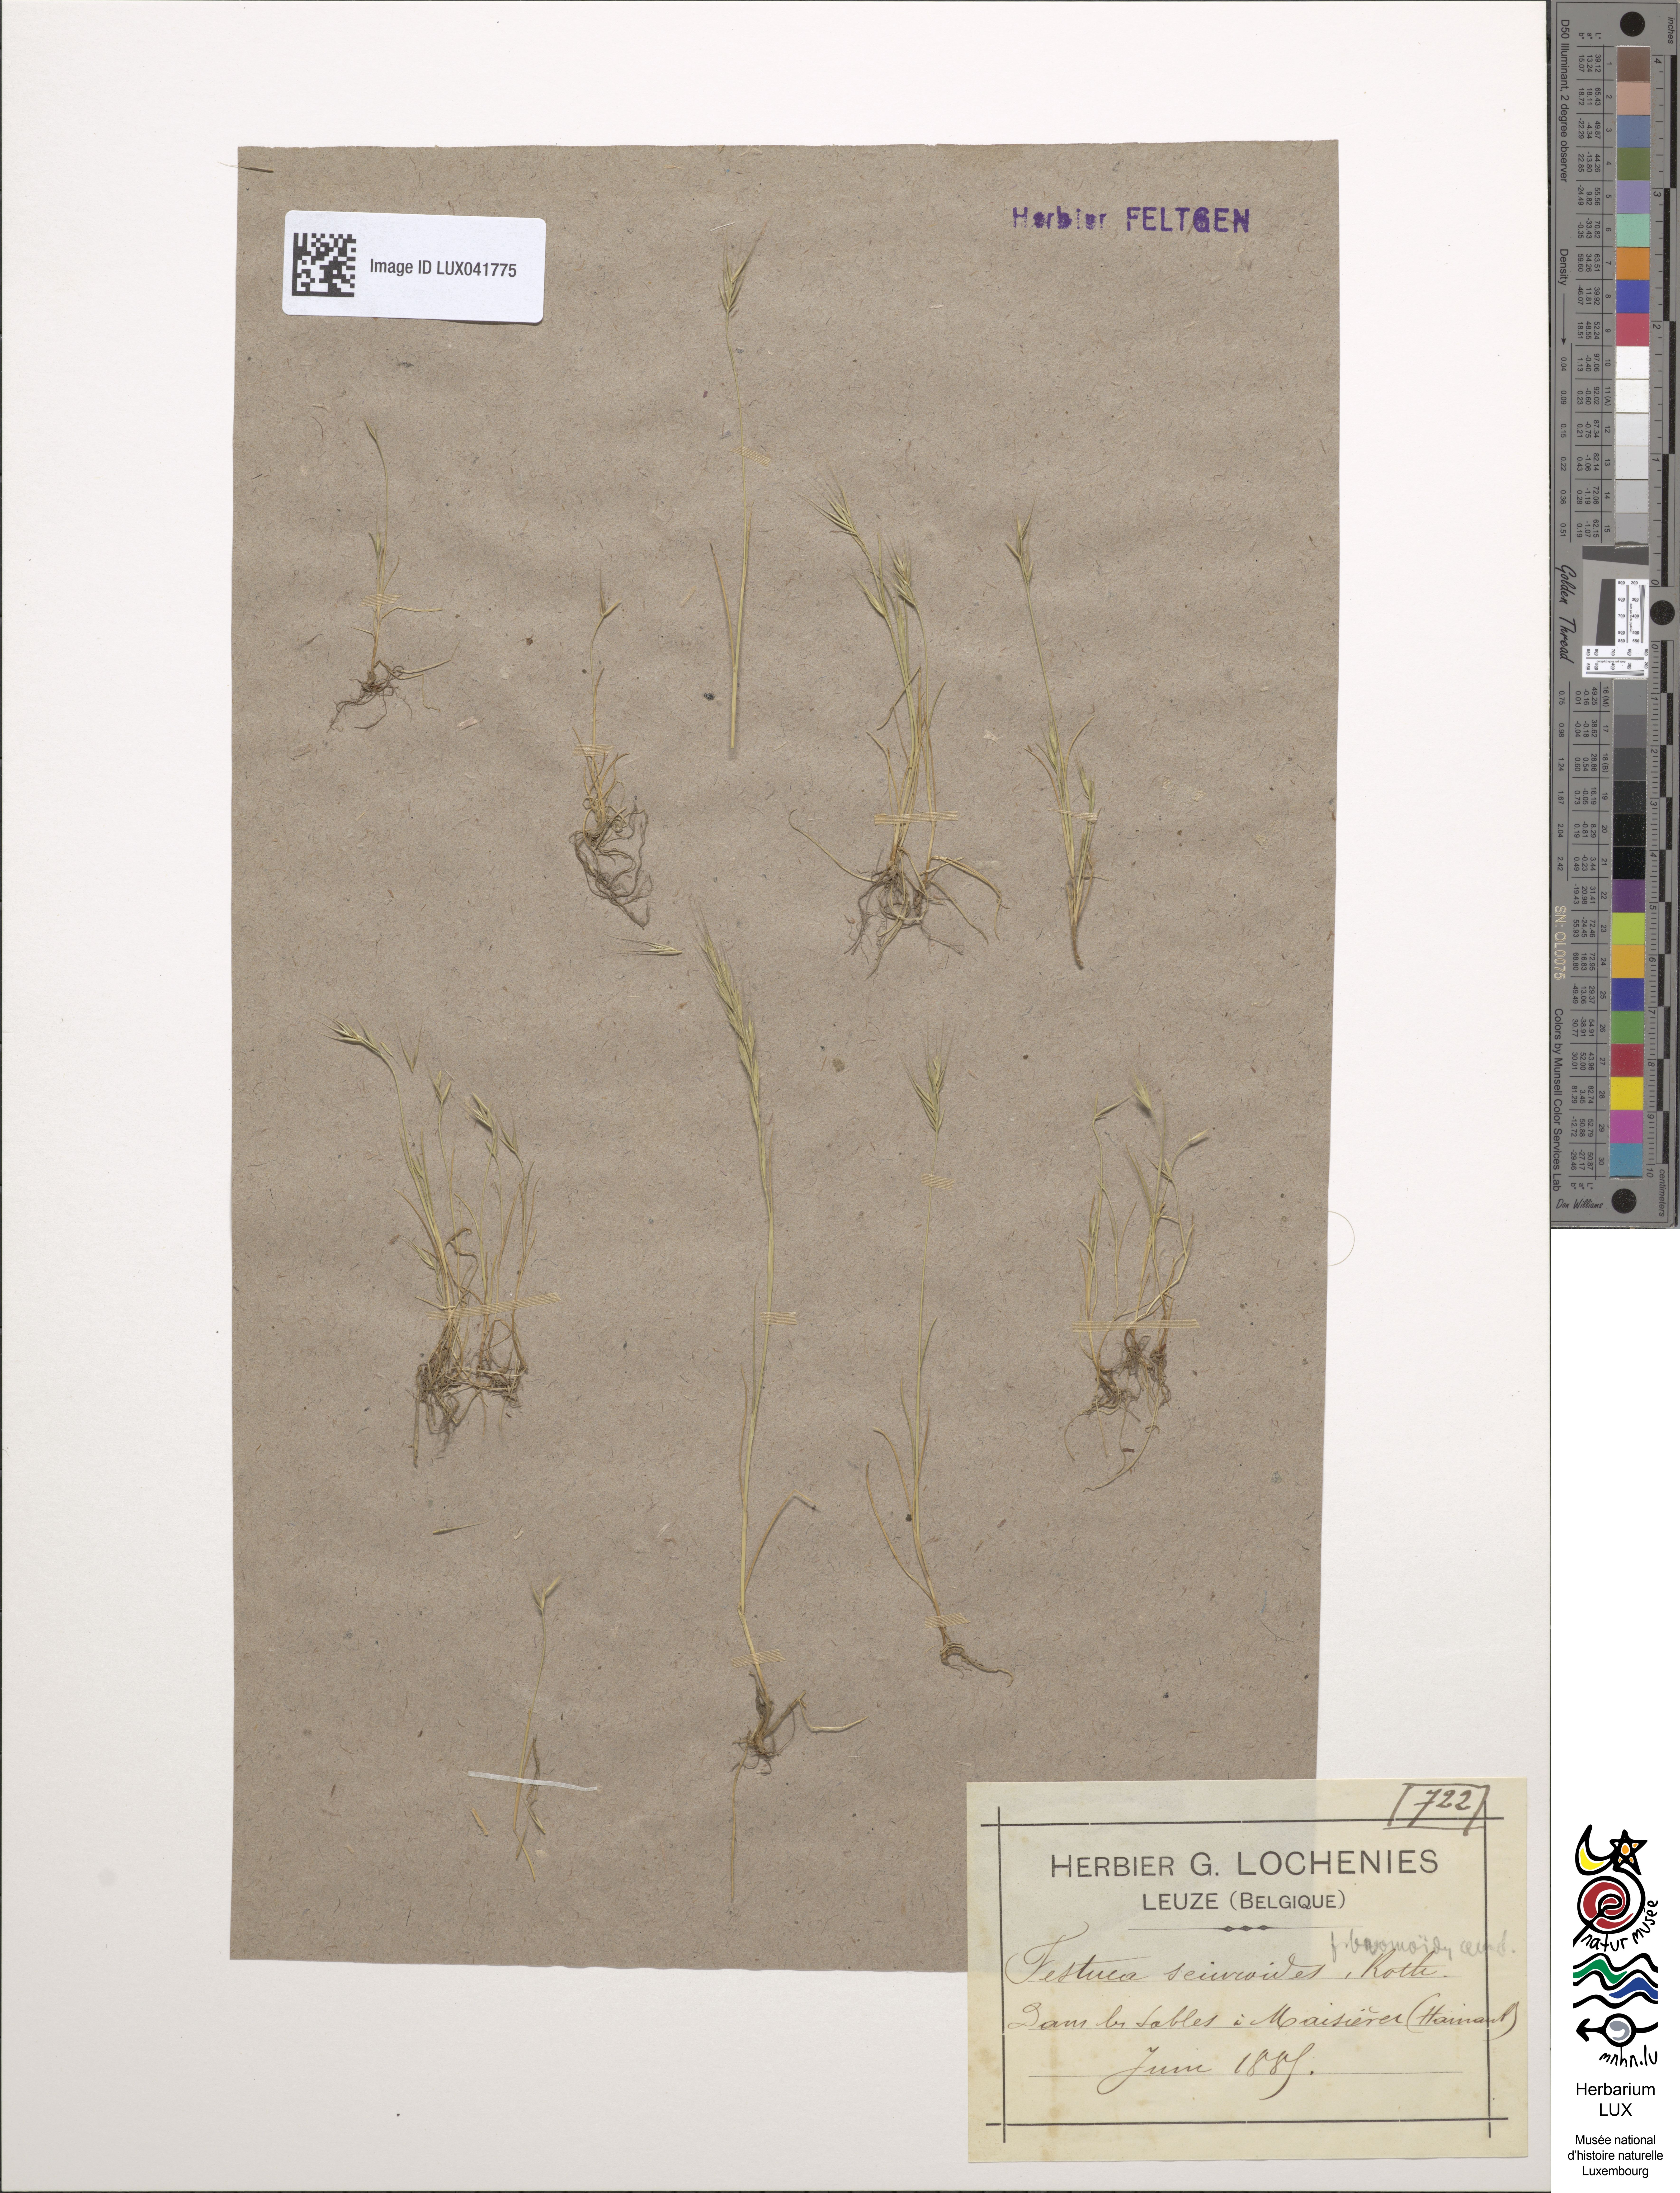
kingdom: Plantae
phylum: Tracheophyta
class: Liliopsida
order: Poales
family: Poaceae
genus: Festuca
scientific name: Festuca bromoides
